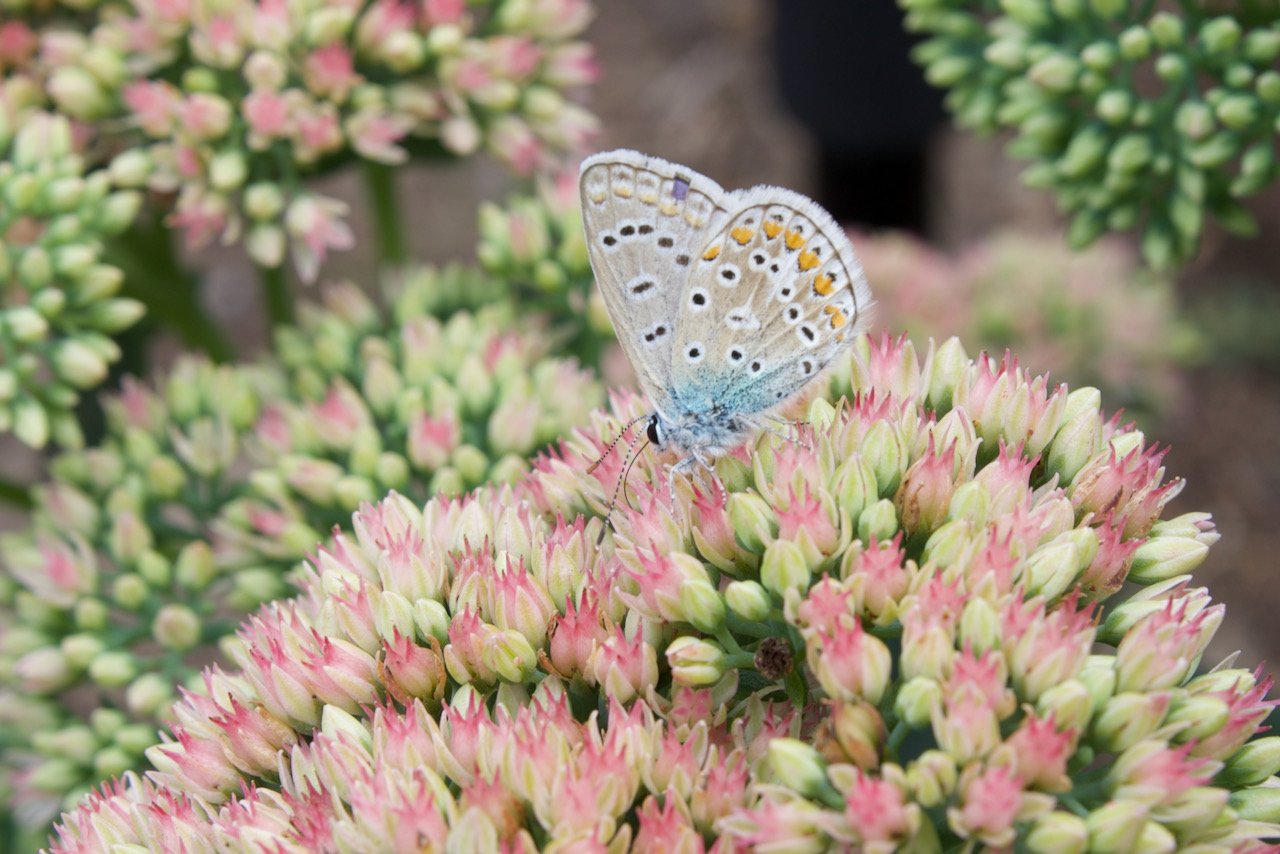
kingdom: Animalia
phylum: Arthropoda
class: Insecta
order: Lepidoptera
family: Lycaenidae
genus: Polyommatus
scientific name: Polyommatus icarus
